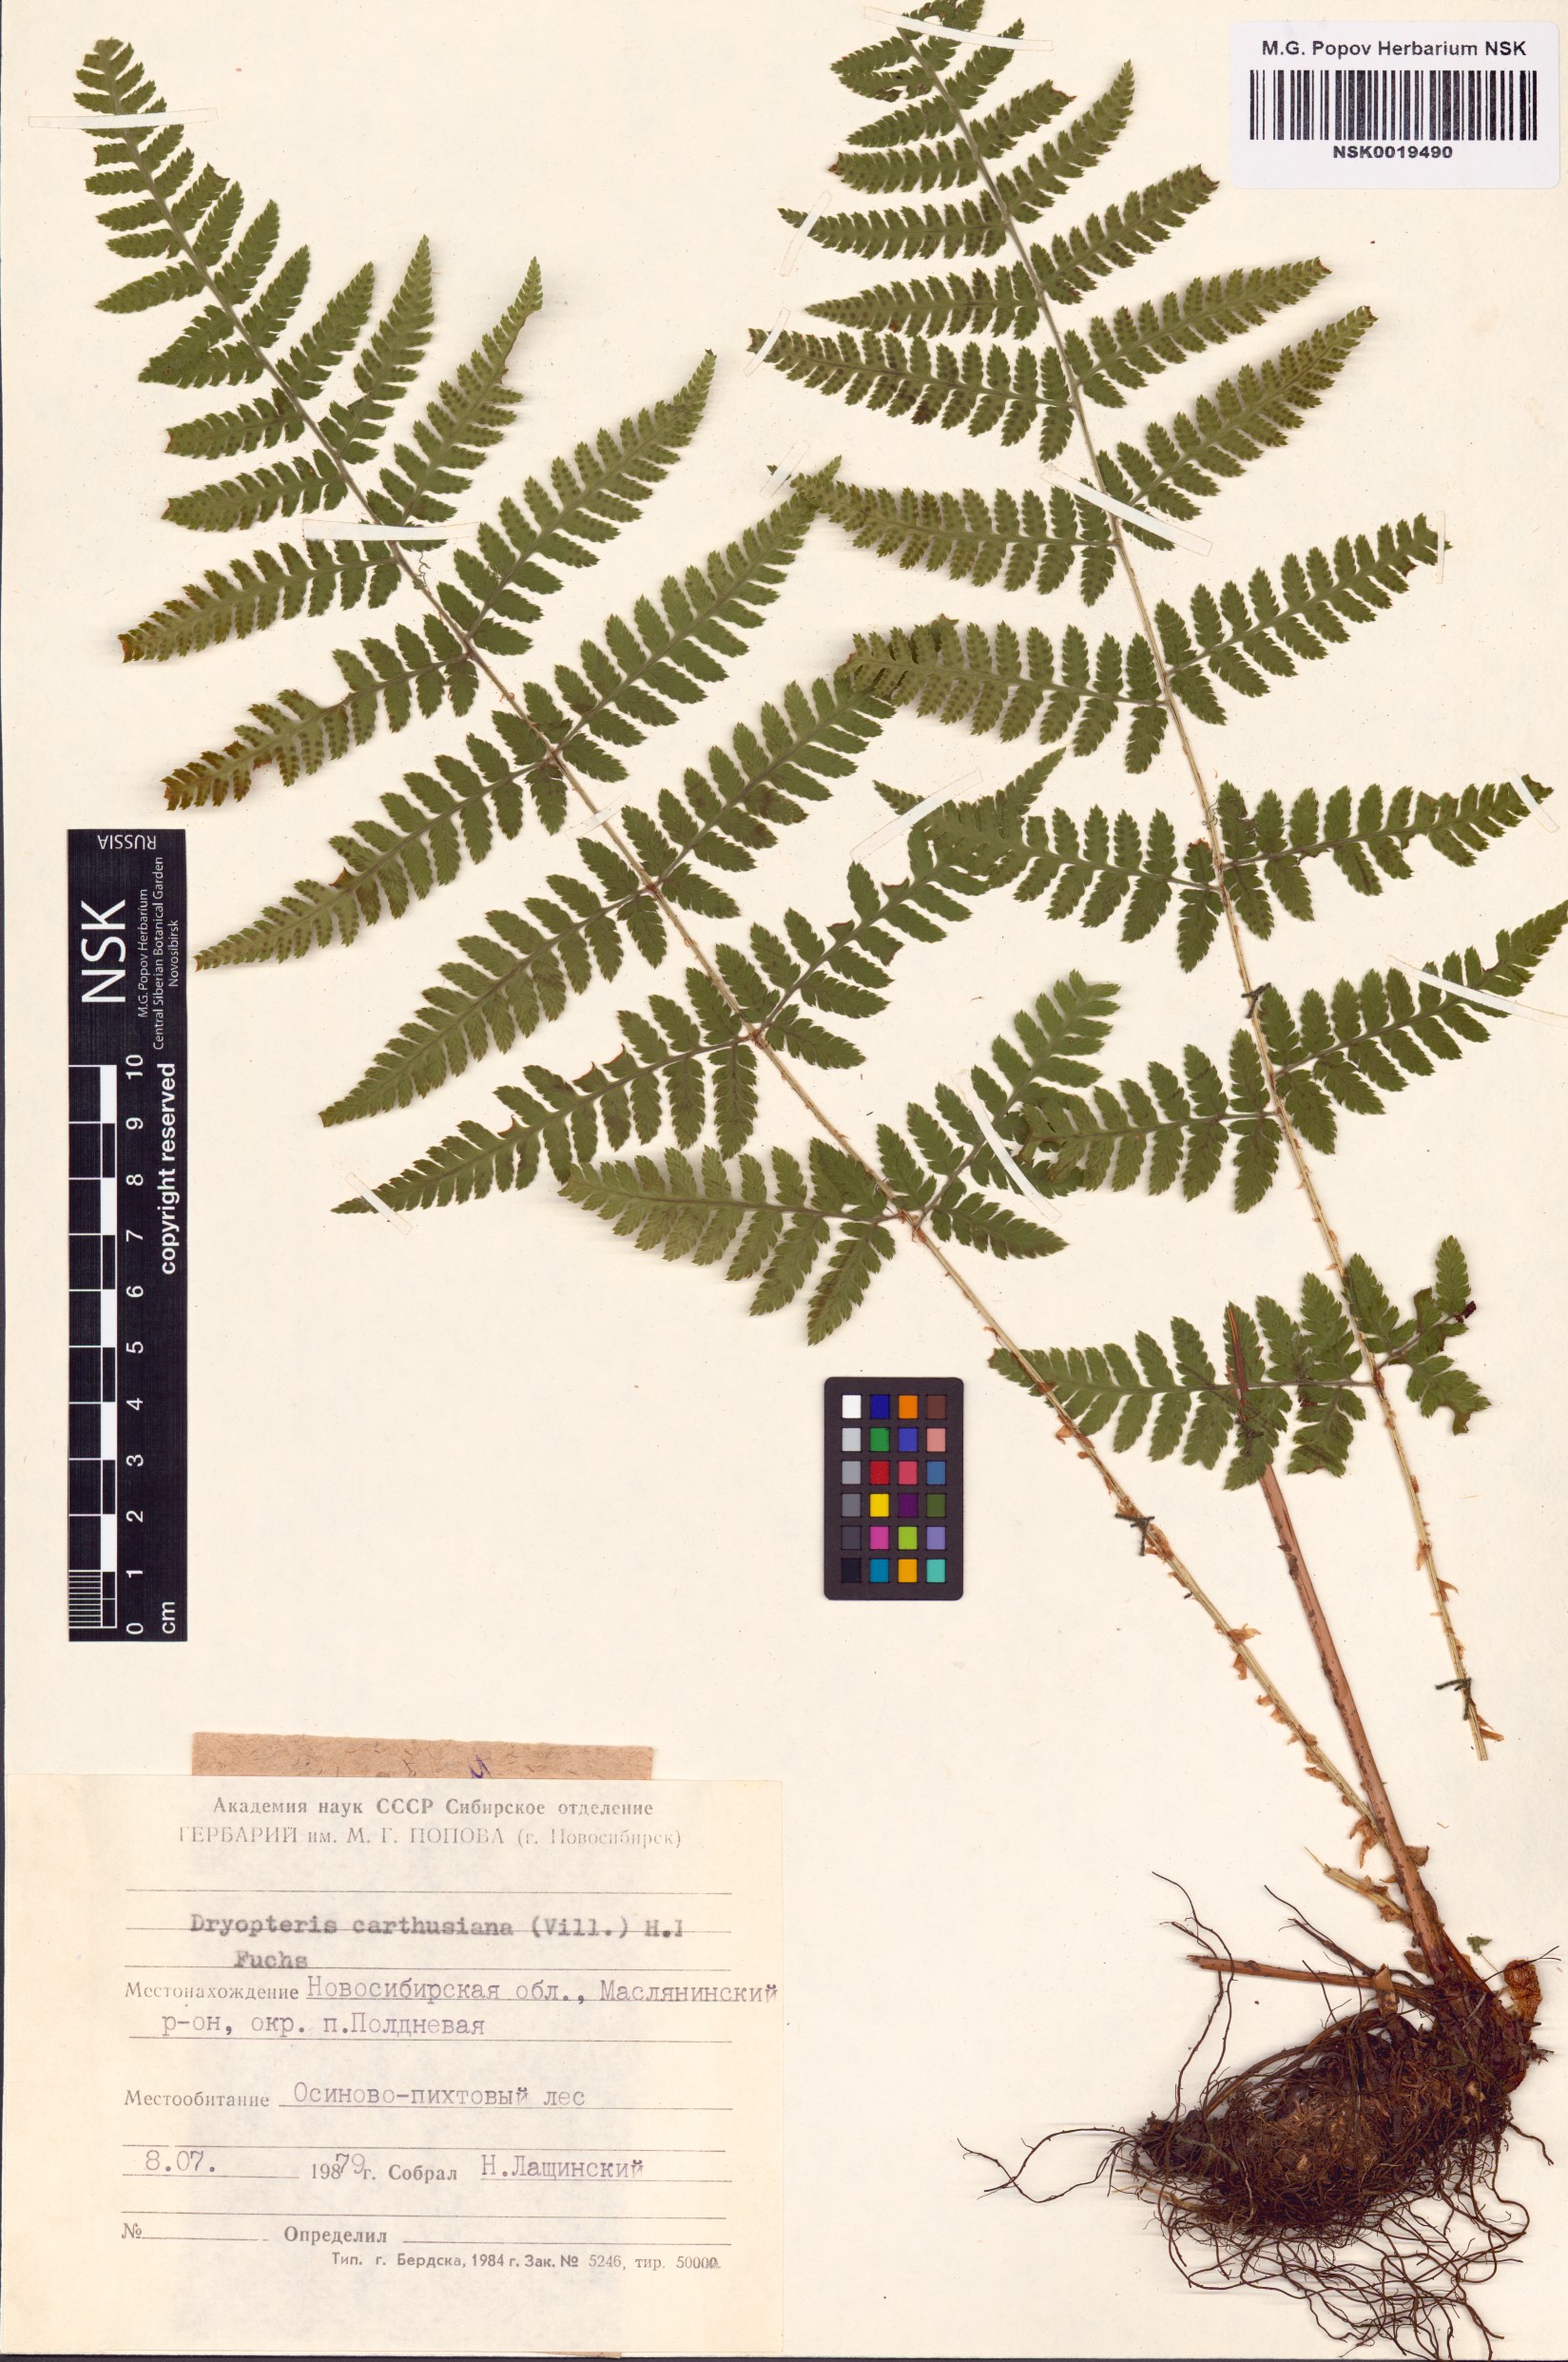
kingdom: Plantae
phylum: Tracheophyta
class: Polypodiopsida
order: Polypodiales
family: Dryopteridaceae
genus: Dryopteris
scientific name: Dryopteris carthusiana
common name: Narrow buckler-fern
